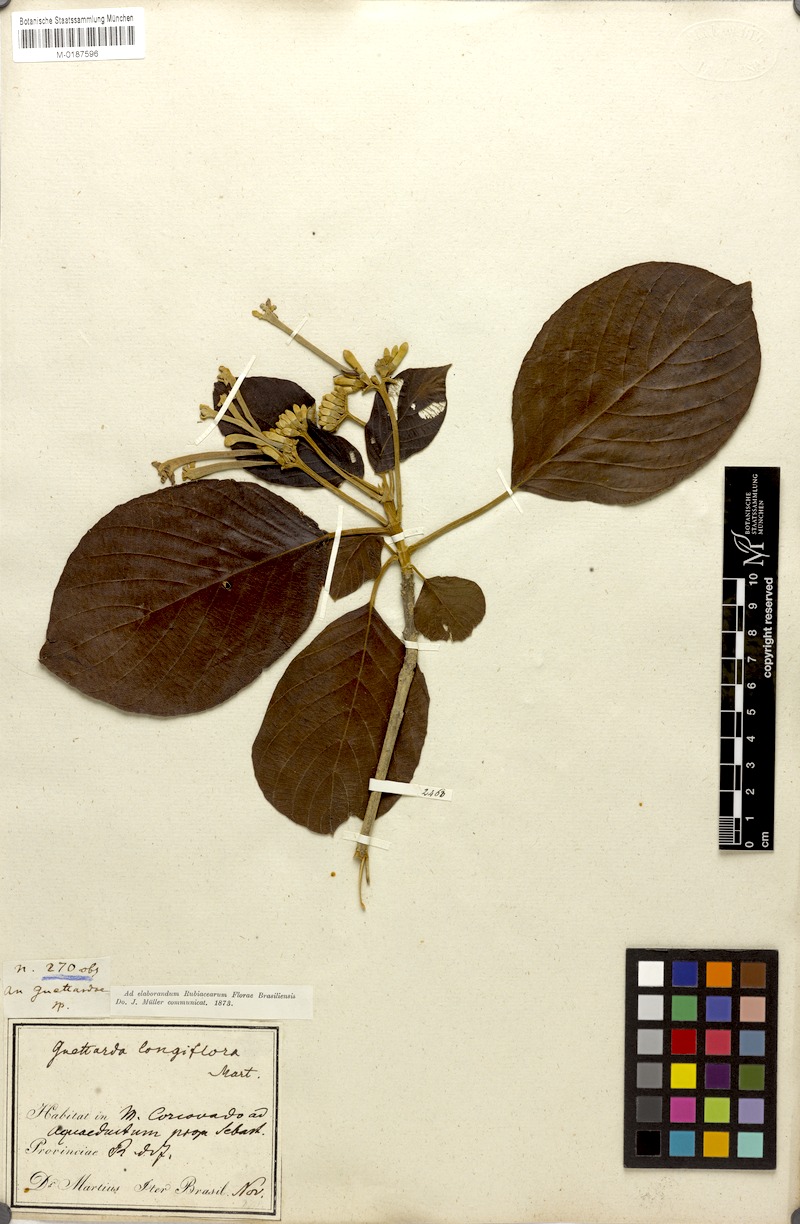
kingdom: Plantae
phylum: Tracheophyta
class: Magnoliopsida
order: Gentianales
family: Rubiaceae
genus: Guettarda
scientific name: Guettarda viburnoides
